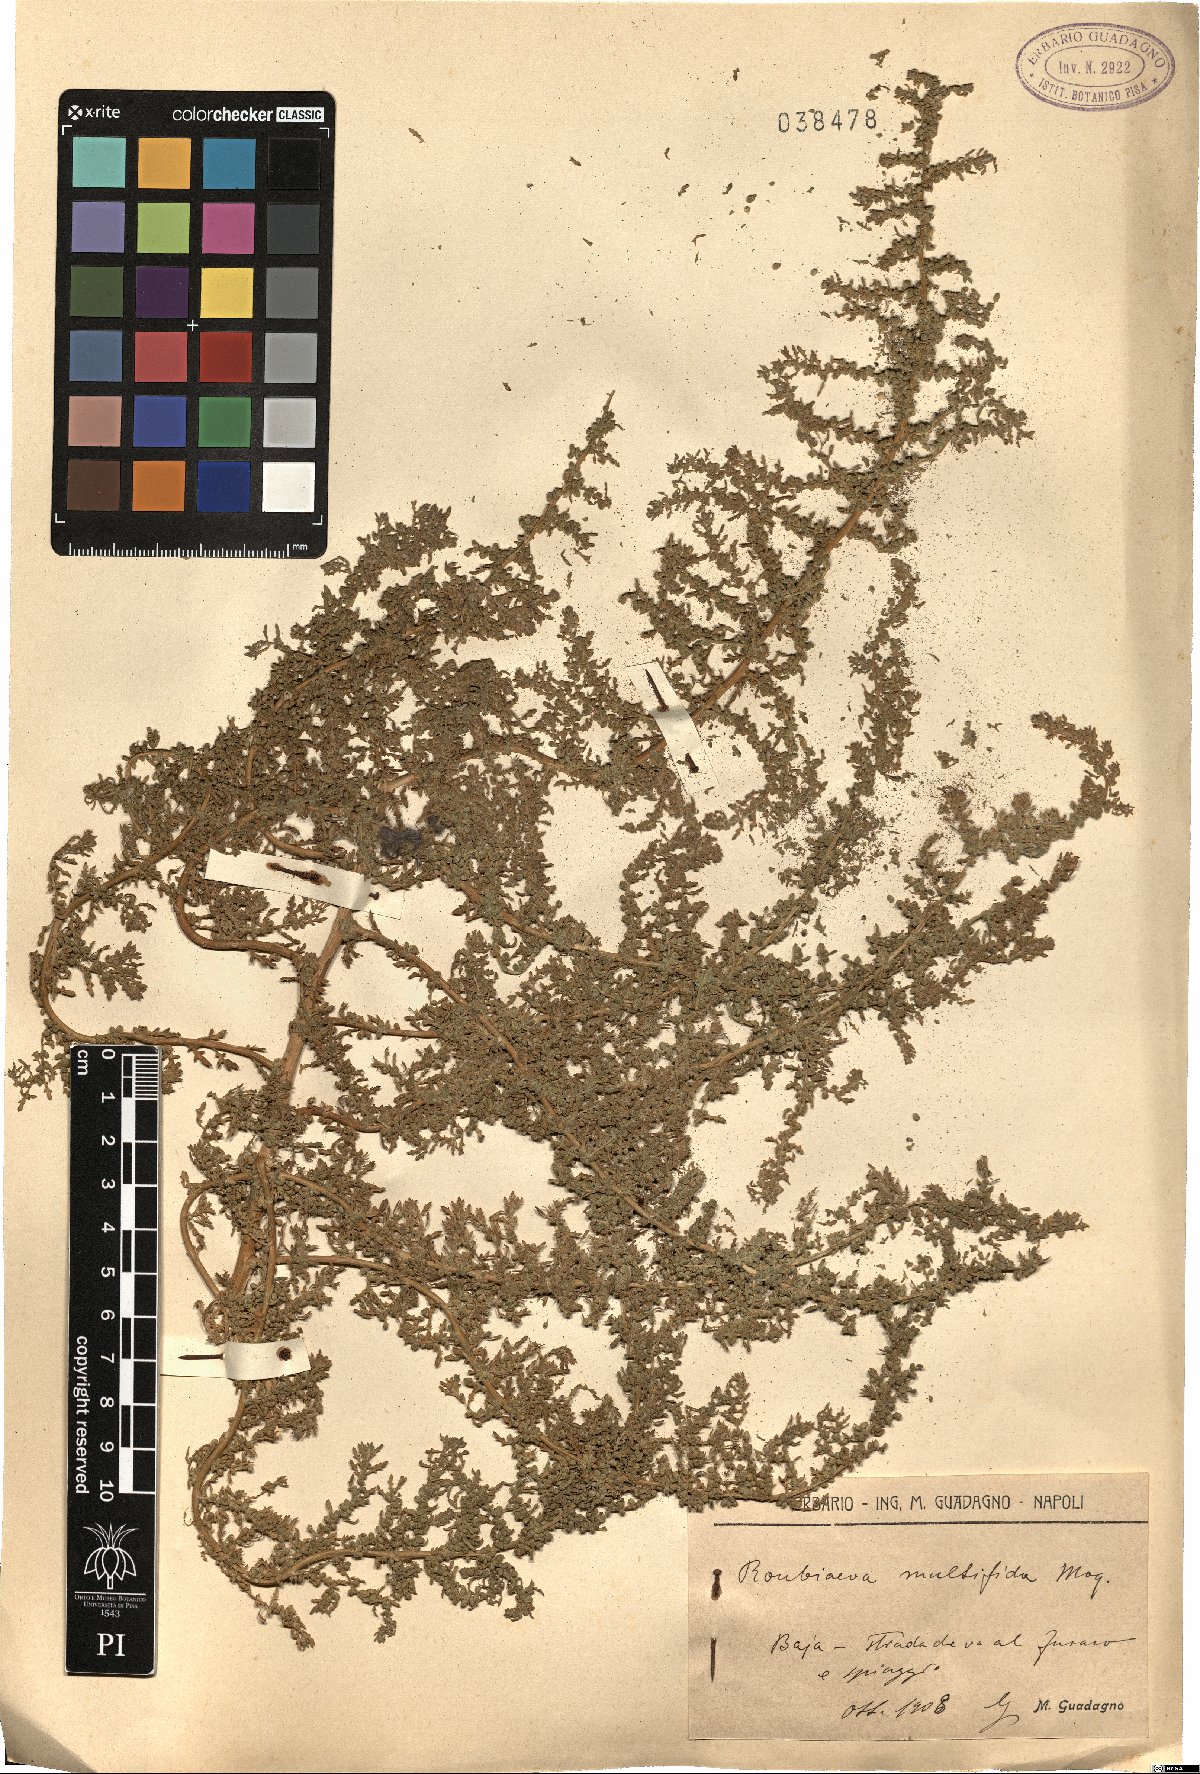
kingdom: Plantae
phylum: Tracheophyta
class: Magnoliopsida
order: Caryophyllales
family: Amaranthaceae
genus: Dysphania
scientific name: Dysphania multifida
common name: Cutleaf goosefoot
